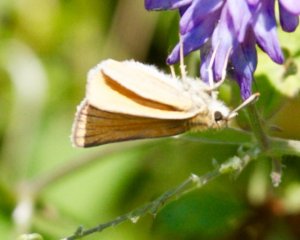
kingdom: Animalia
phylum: Arthropoda
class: Insecta
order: Lepidoptera
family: Hesperiidae
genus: Thymelicus
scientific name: Thymelicus lineola
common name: European Skipper
